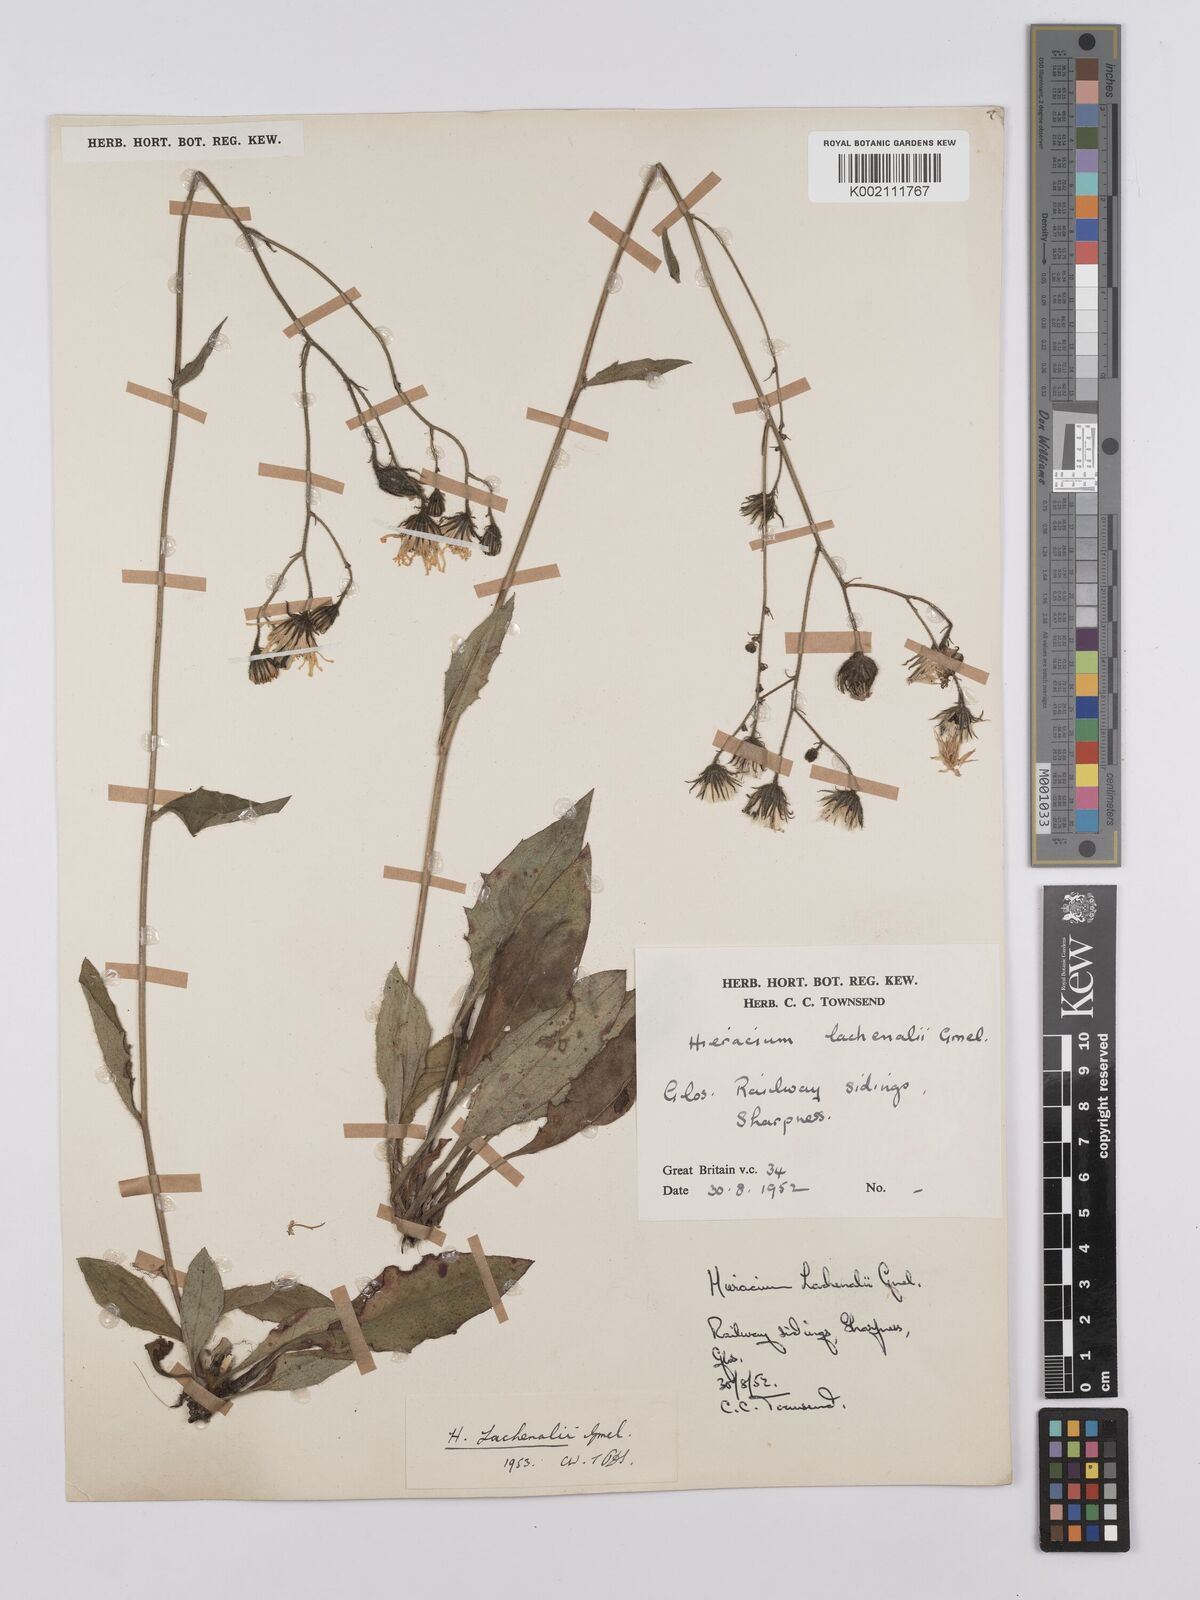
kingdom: Plantae
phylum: Tracheophyta
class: Magnoliopsida
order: Asterales
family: Asteraceae
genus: Hieracium
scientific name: Hieracium lachenalii
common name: Common hawkweed
